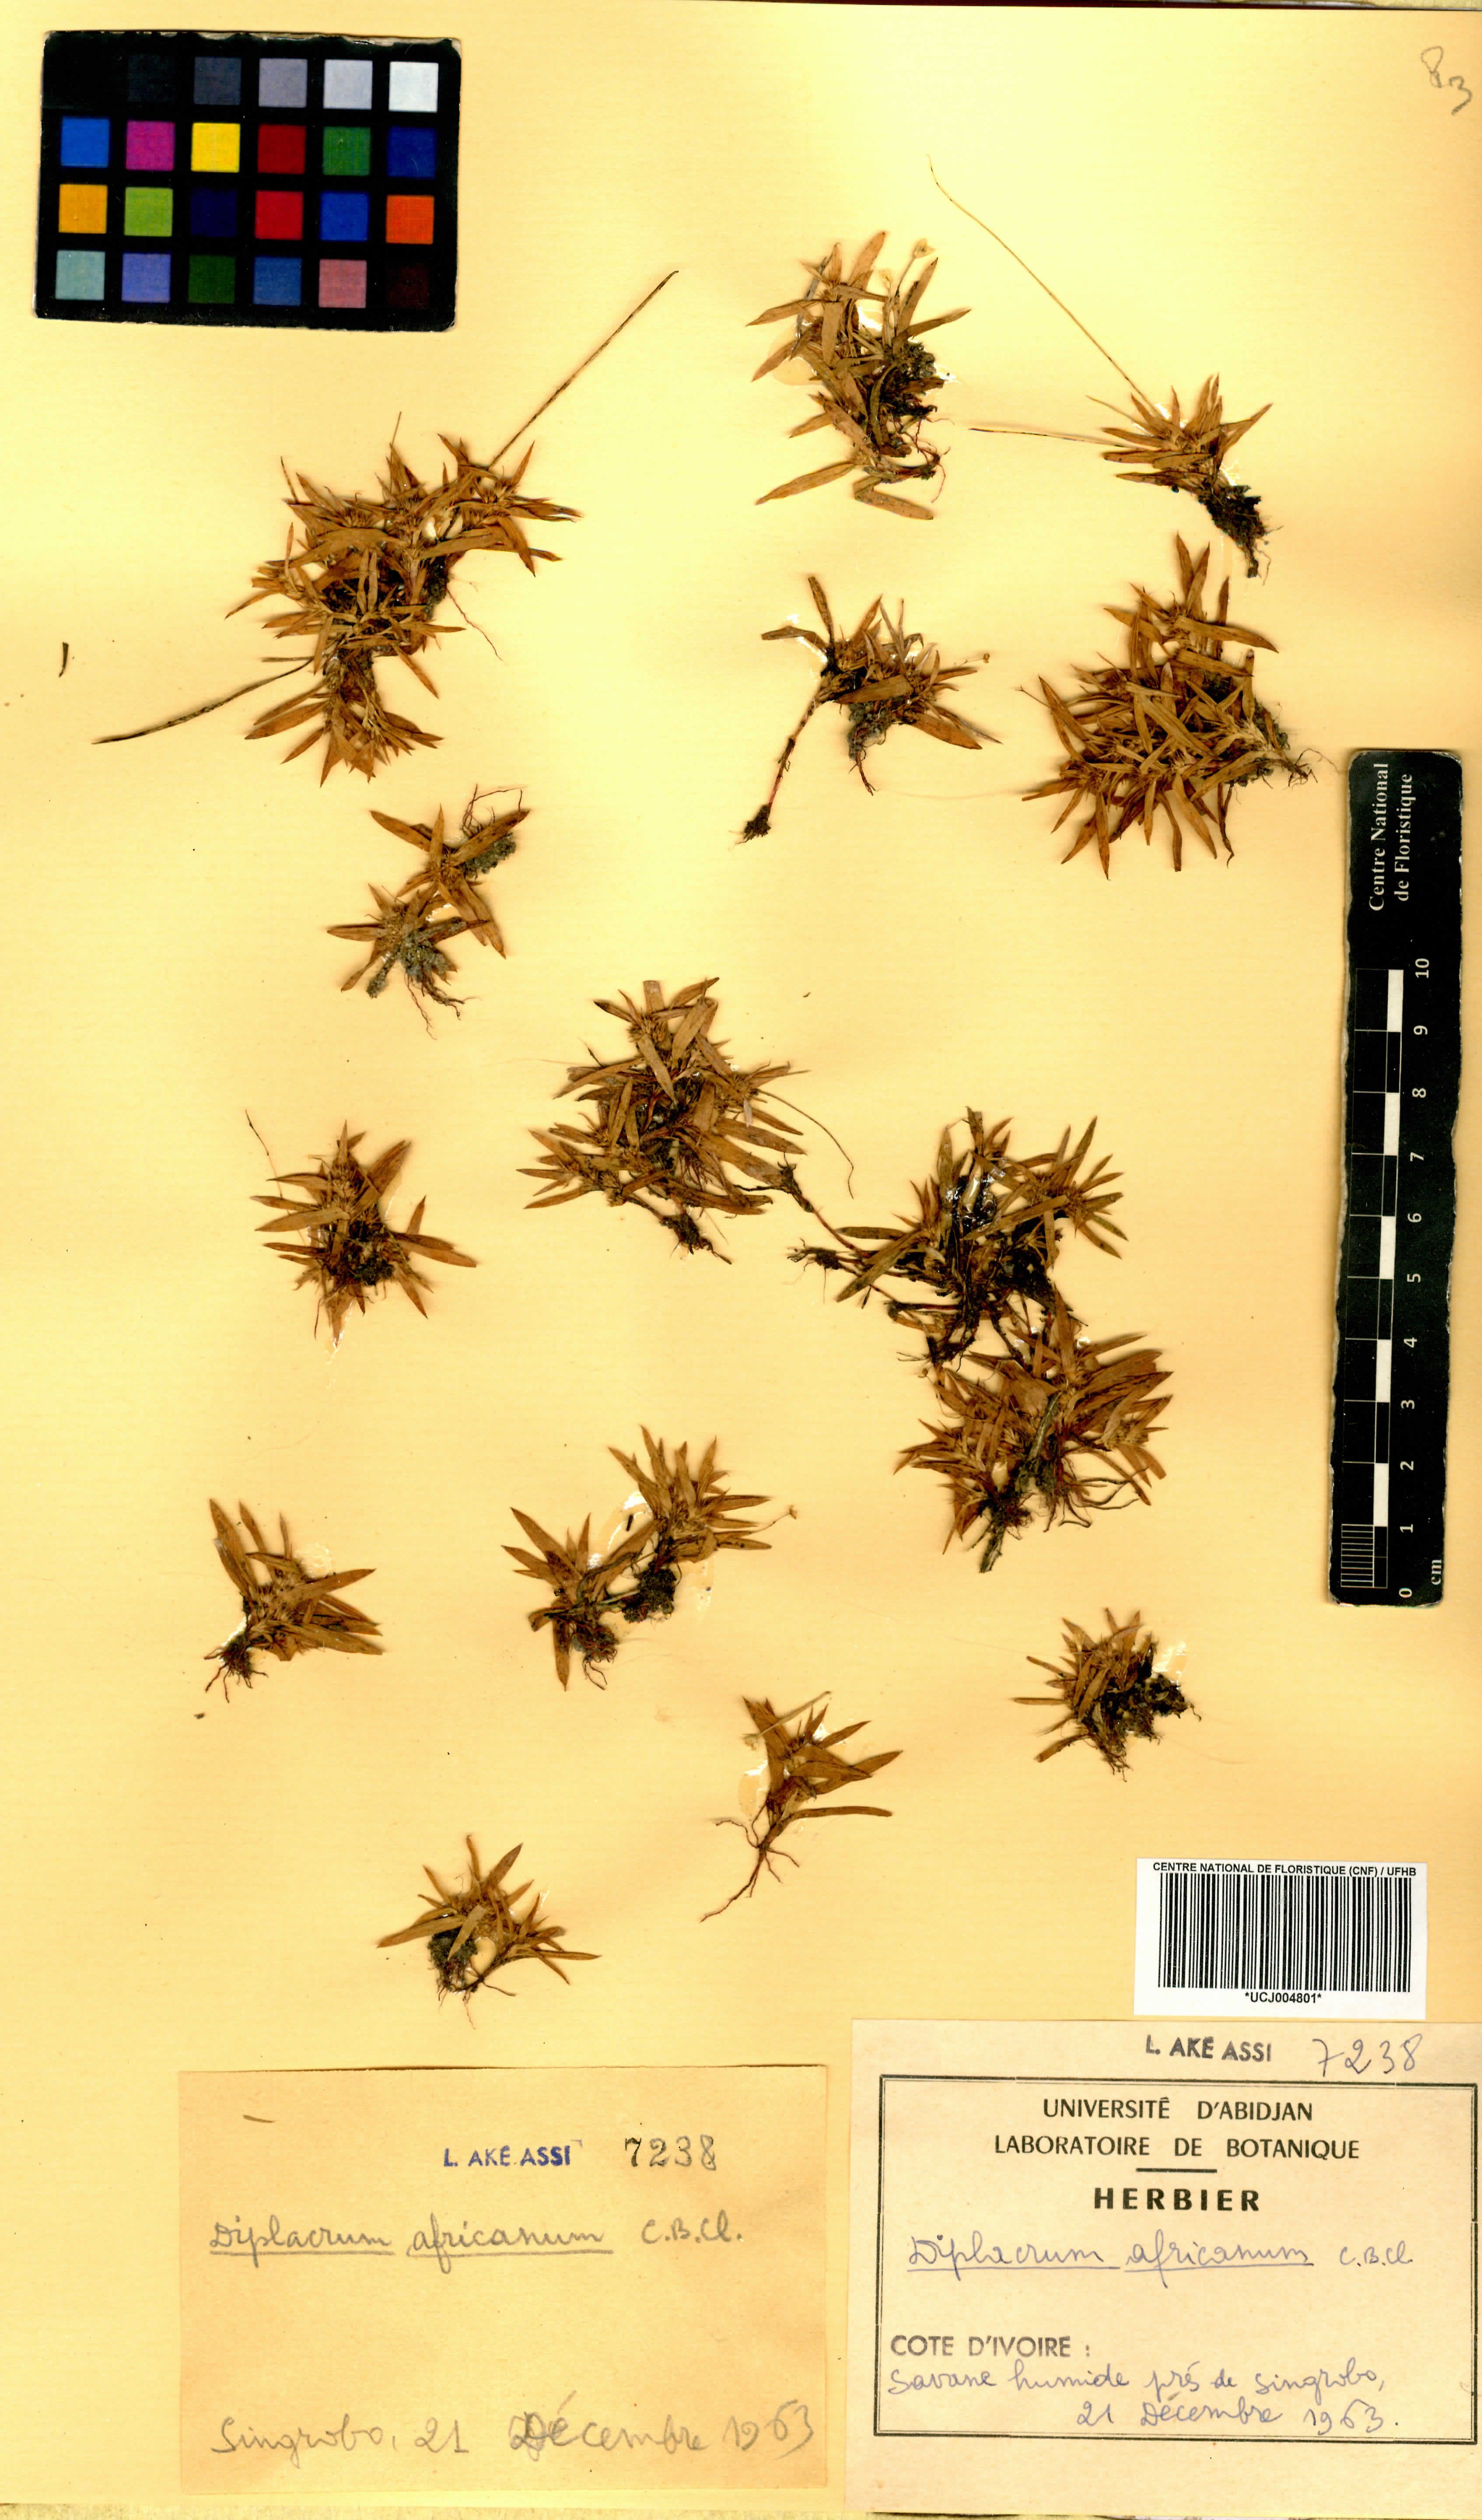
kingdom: Plantae
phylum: Tracheophyta
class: Liliopsida
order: Poales
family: Cyperaceae
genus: Diplacrum
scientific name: Diplacrum africanum
